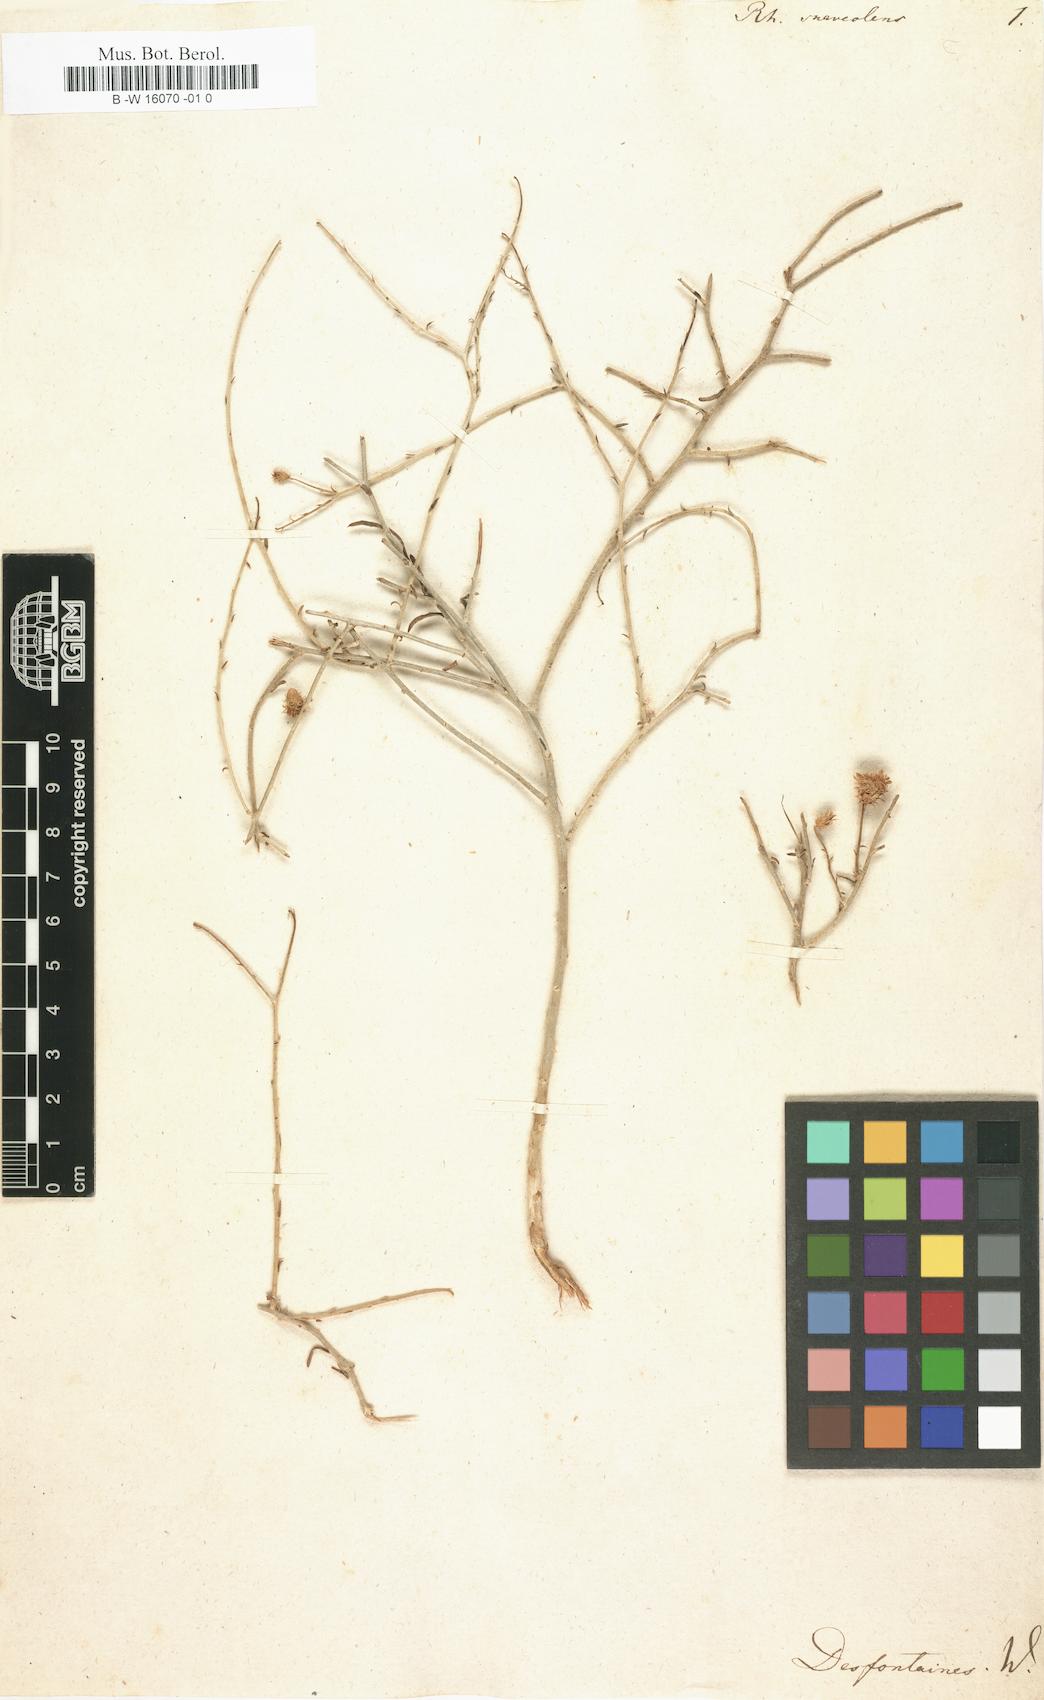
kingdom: Plantae
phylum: Tracheophyta
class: Magnoliopsida
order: Asterales
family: Asteraceae
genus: Rhanterium
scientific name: Rhanterium suaveolens
